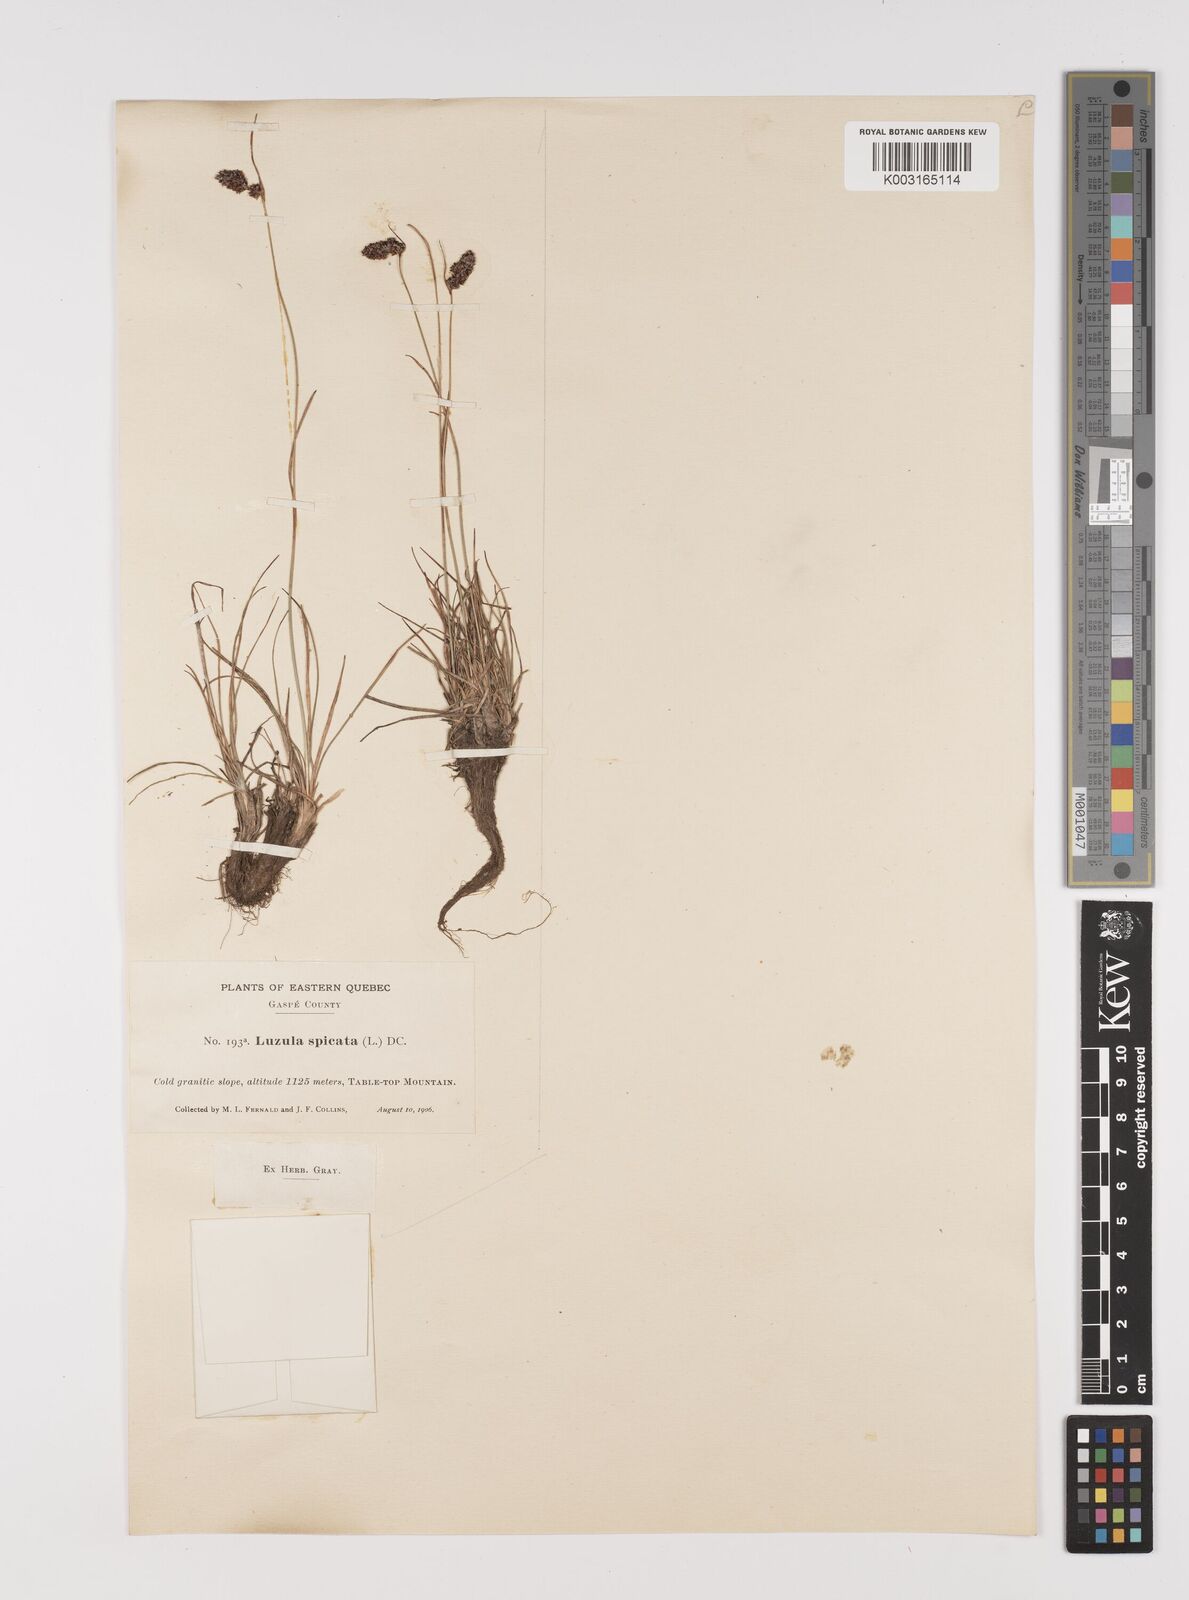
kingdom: Plantae
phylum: Tracheophyta
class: Liliopsida
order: Poales
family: Juncaceae
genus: Luzula
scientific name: Luzula spicata
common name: Spiked wood-rush
